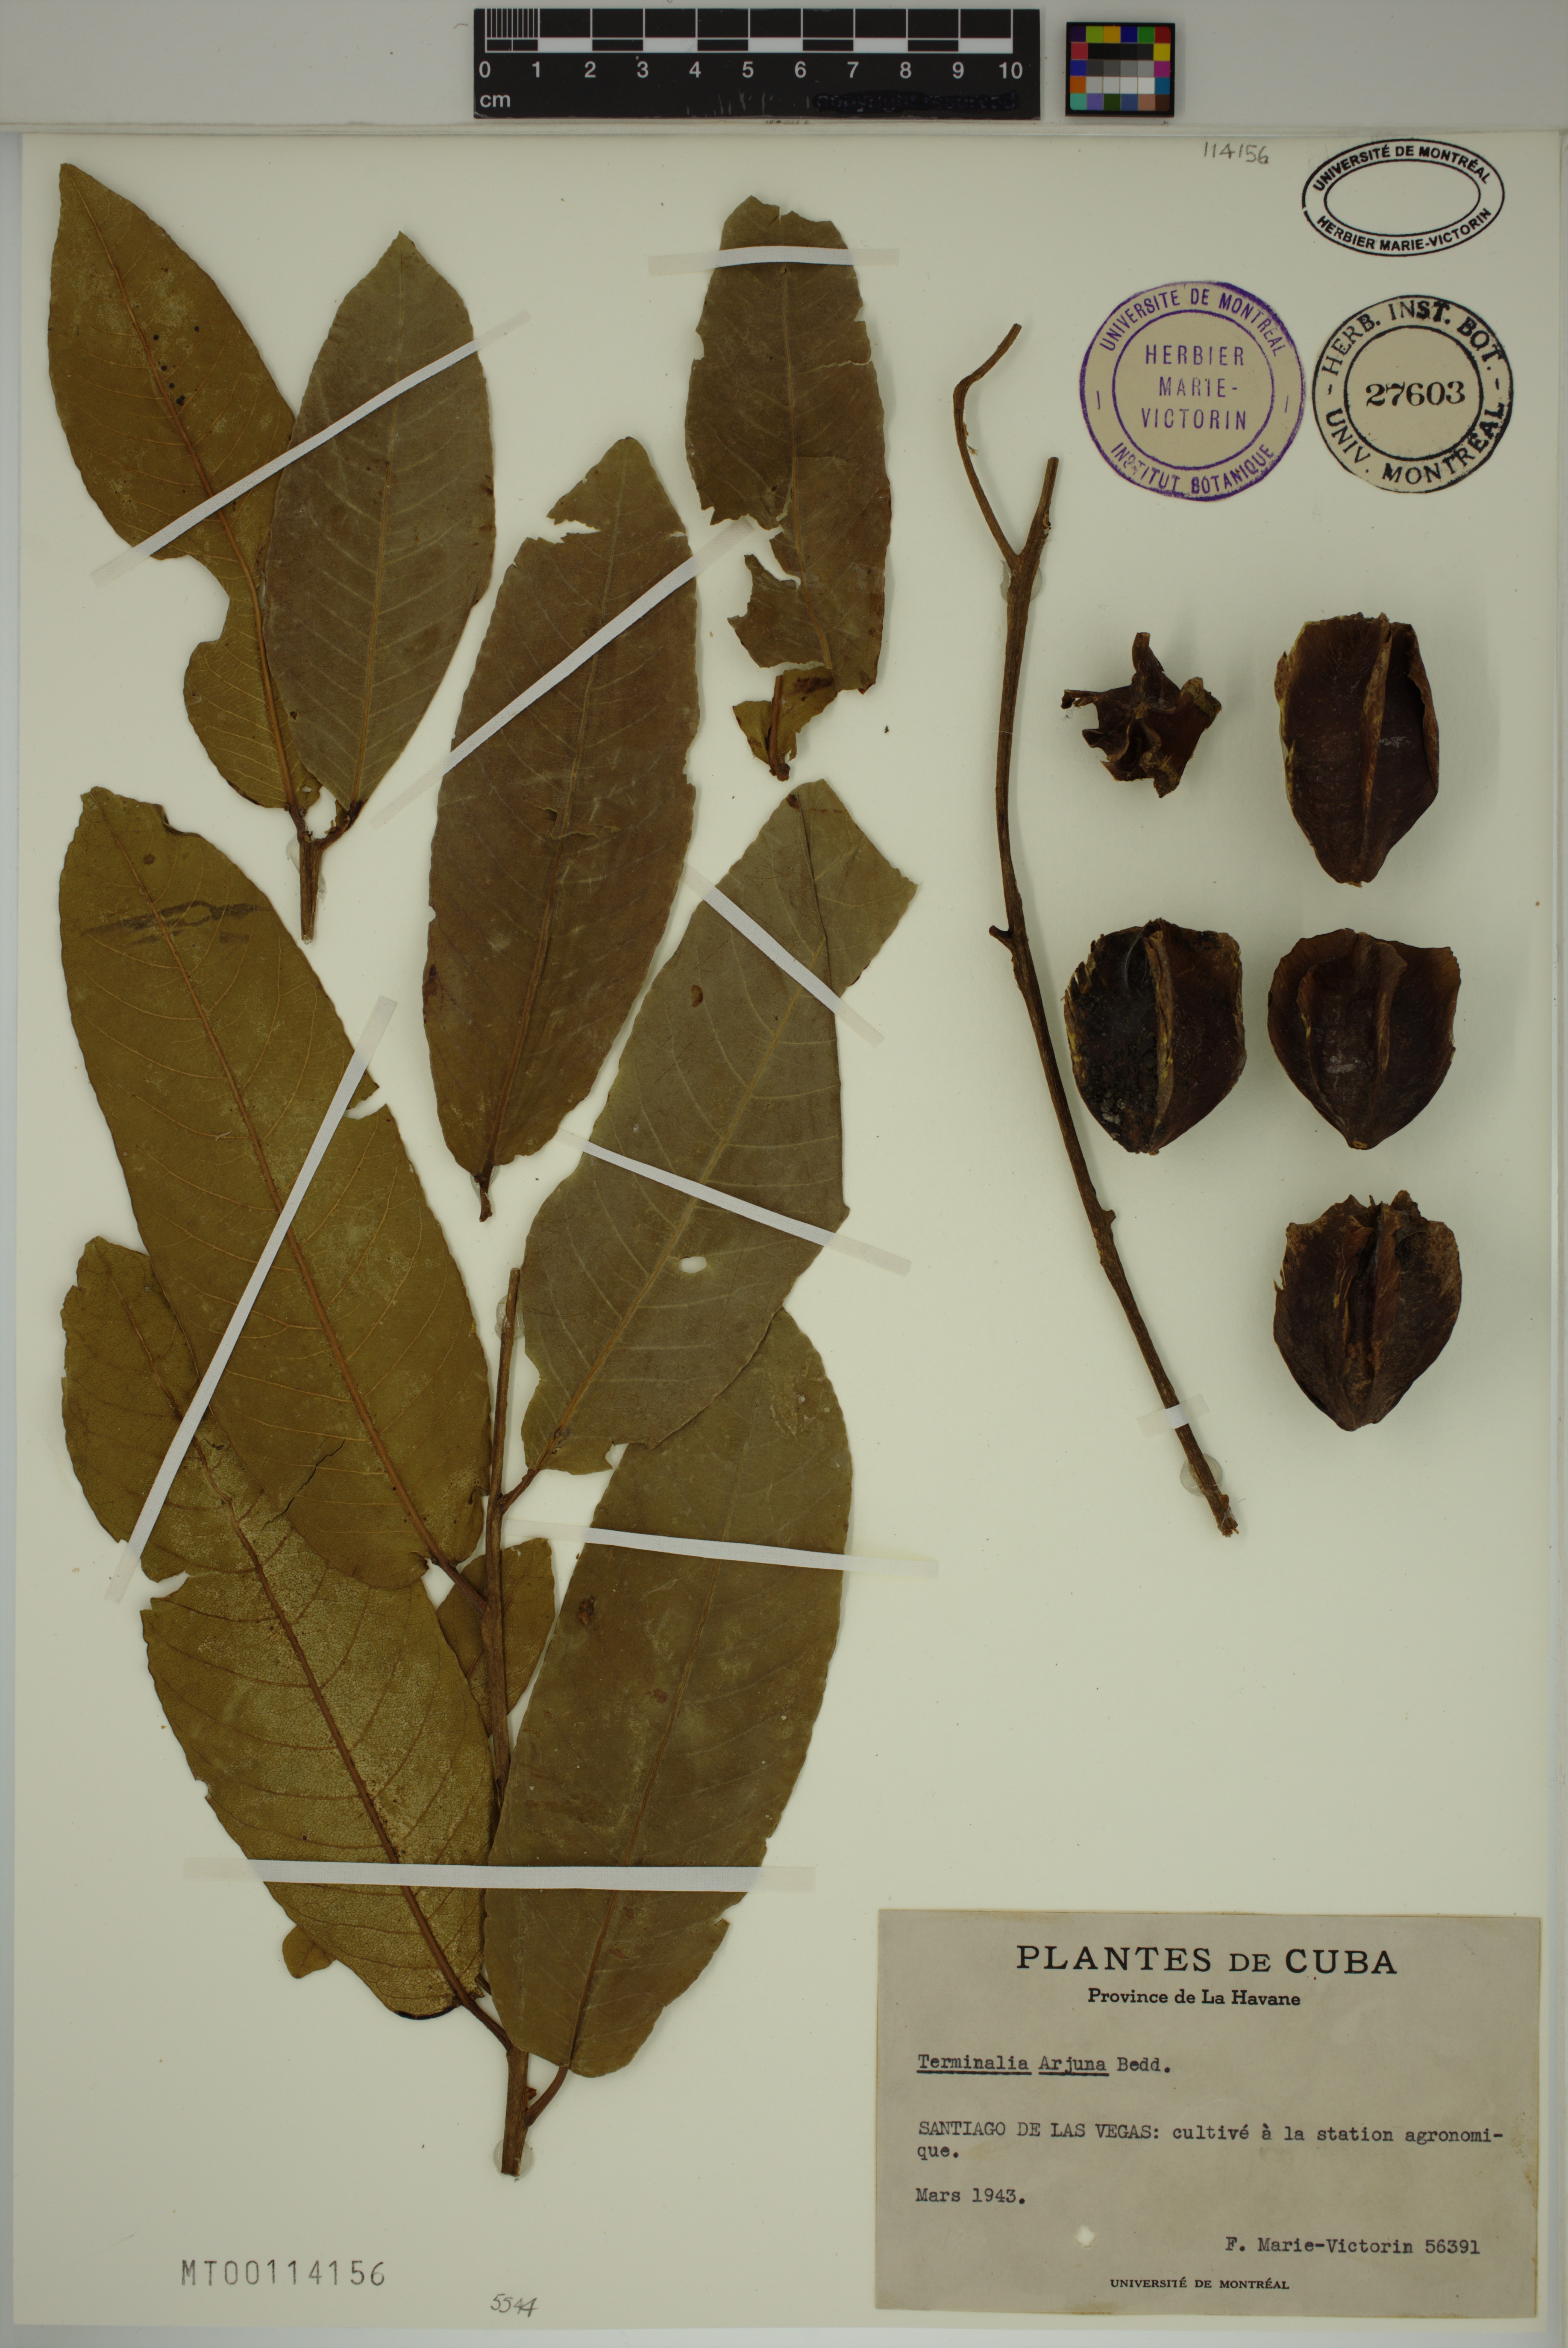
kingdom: Plantae
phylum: Tracheophyta
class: Magnoliopsida
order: Myrtales
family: Combretaceae
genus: Terminalia
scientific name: Terminalia arjuna
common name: Arjun
